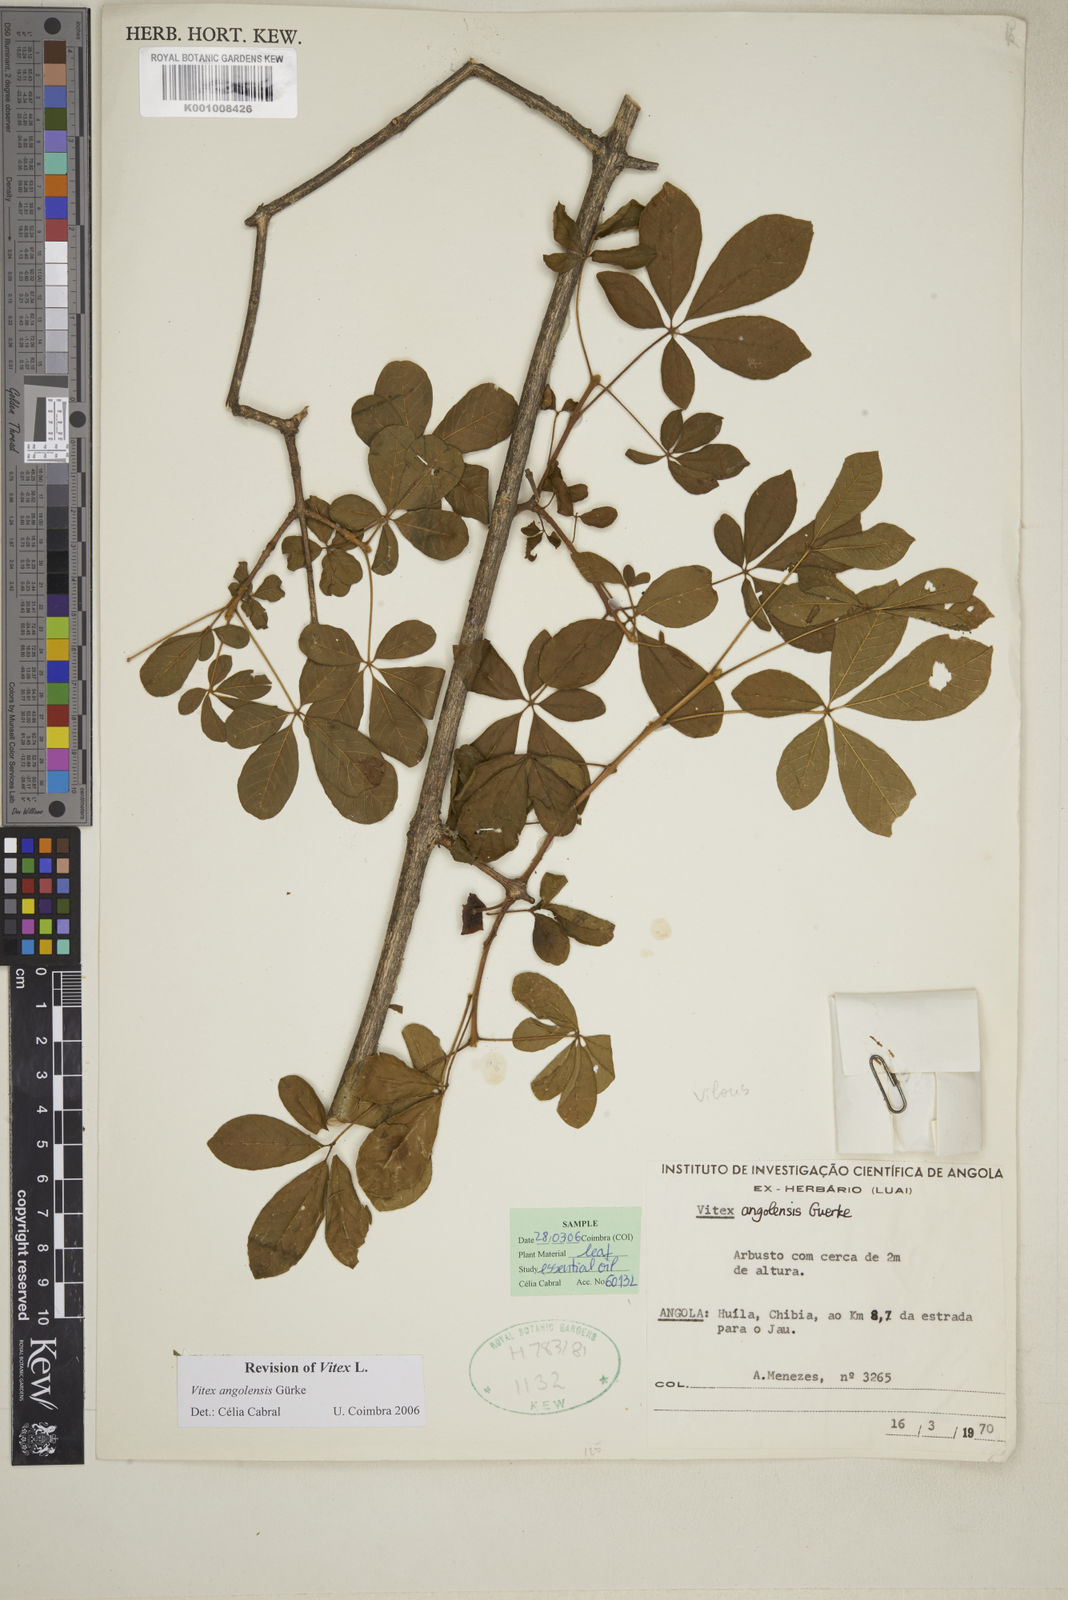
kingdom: Plantae
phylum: Tracheophyta
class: Magnoliopsida
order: Lamiales
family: Lamiaceae
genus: Vitex
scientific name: Vitex
